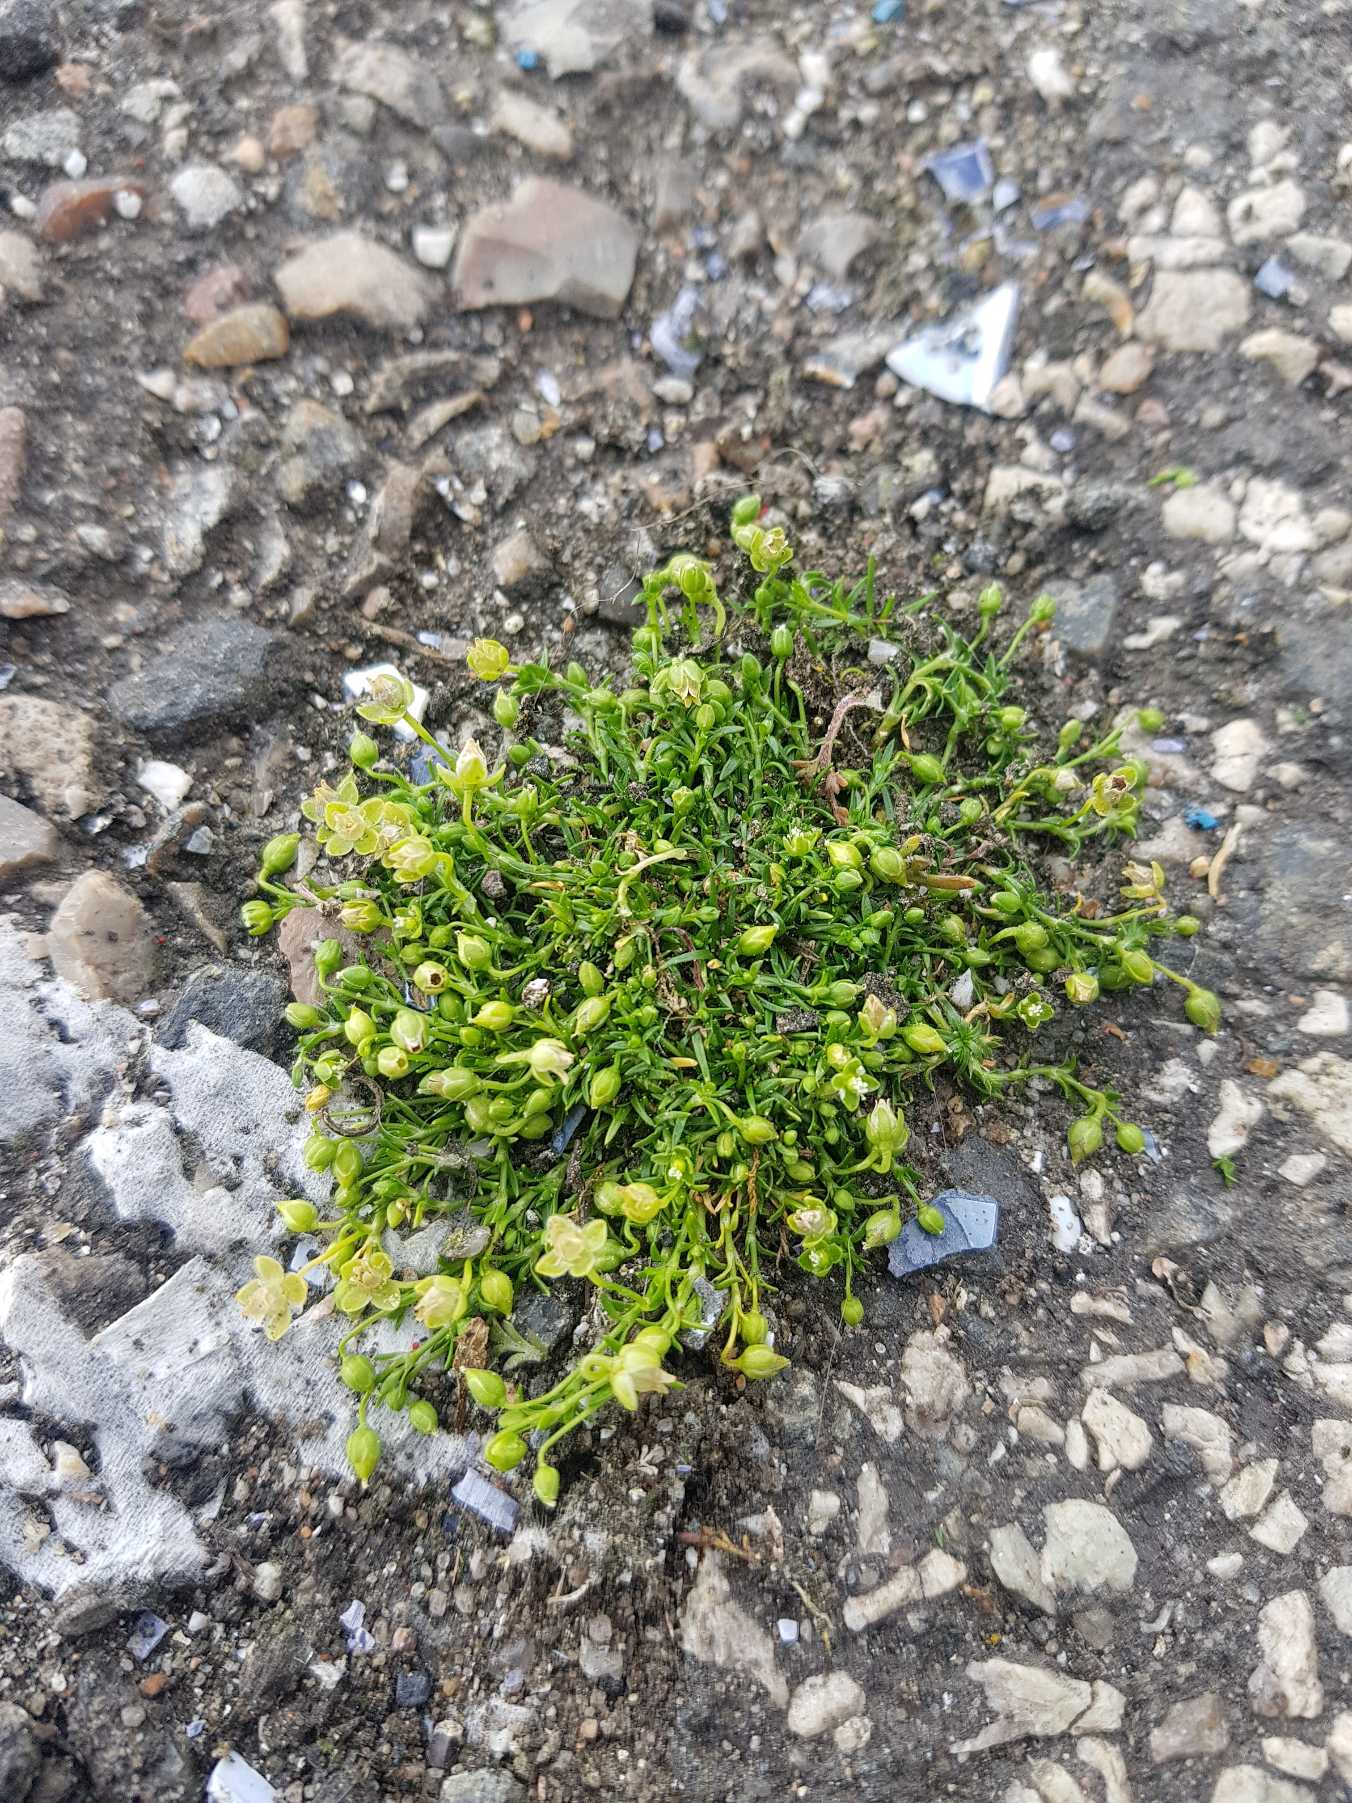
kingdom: Plantae
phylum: Tracheophyta
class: Magnoliopsida
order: Caryophyllales
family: Caryophyllaceae
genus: Sagina
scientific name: Sagina procumbens
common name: Almindelig firling
